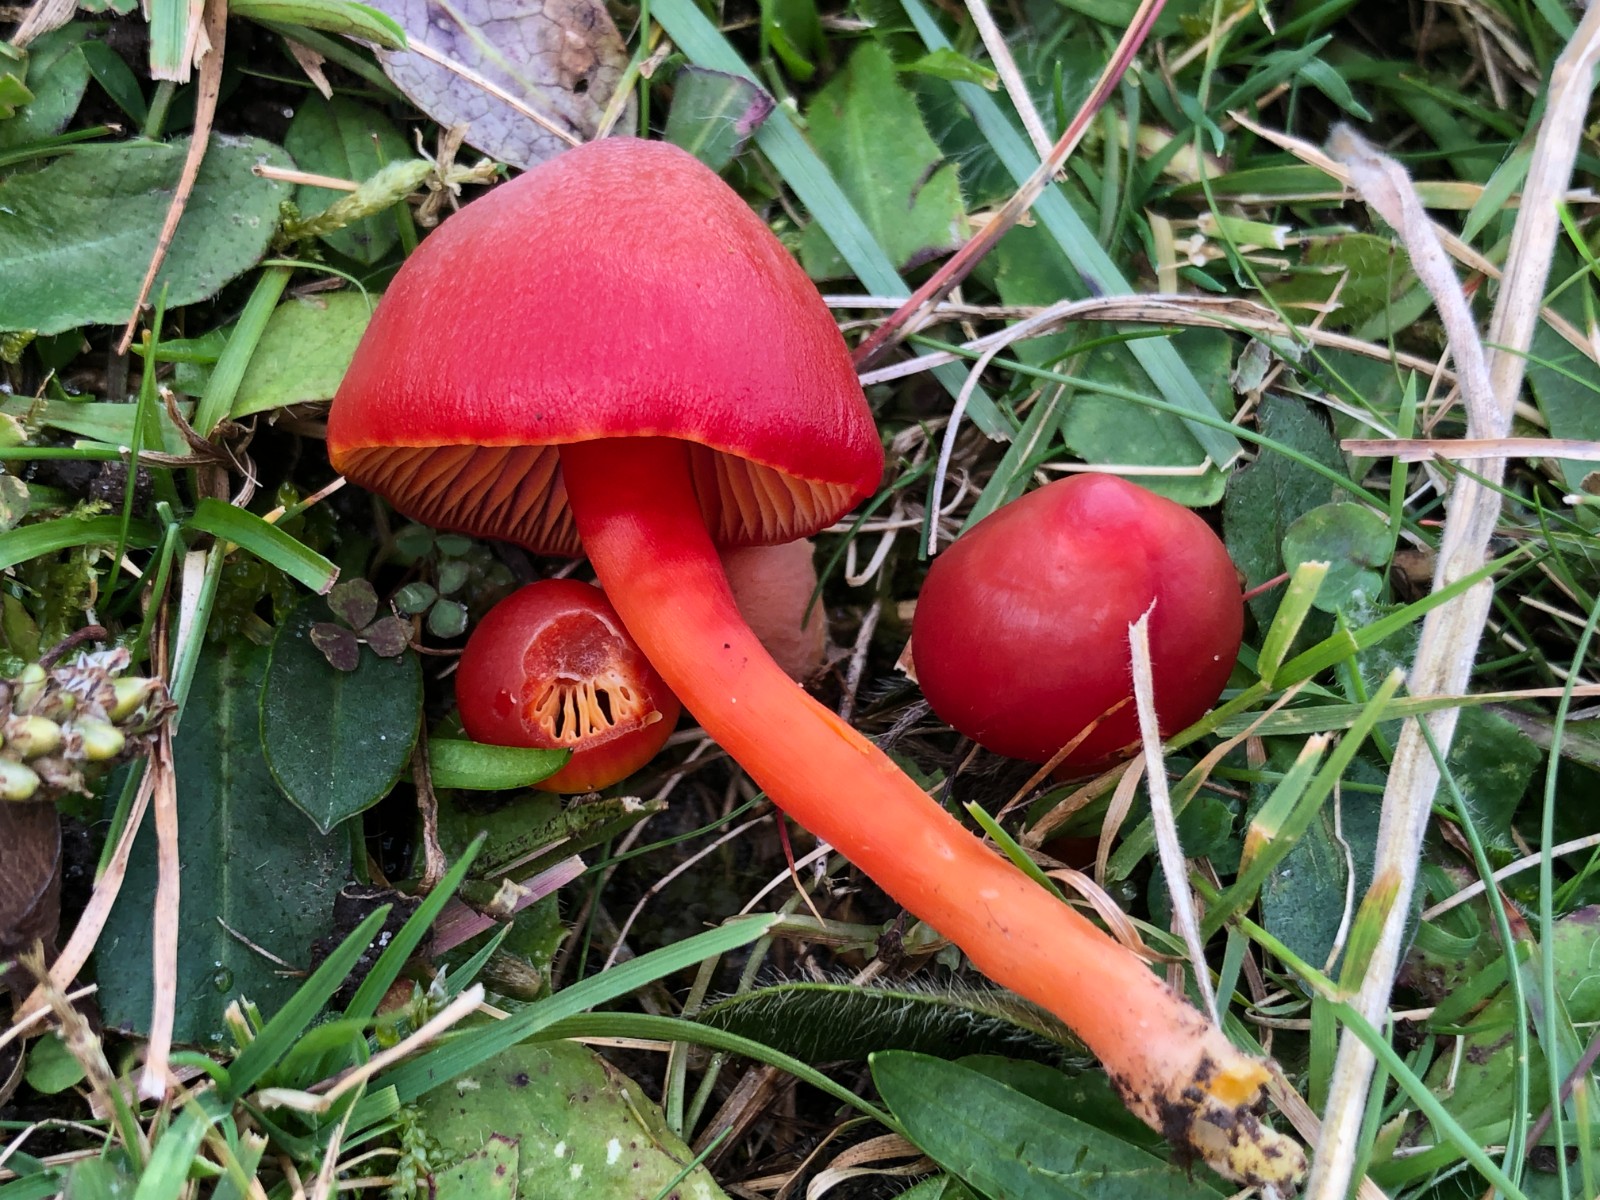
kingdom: Fungi
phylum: Basidiomycota
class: Agaricomycetes
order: Agaricales
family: Hygrophoraceae
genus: Hygrocybe
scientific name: Hygrocybe coccinea
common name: cinnober-vokshat
